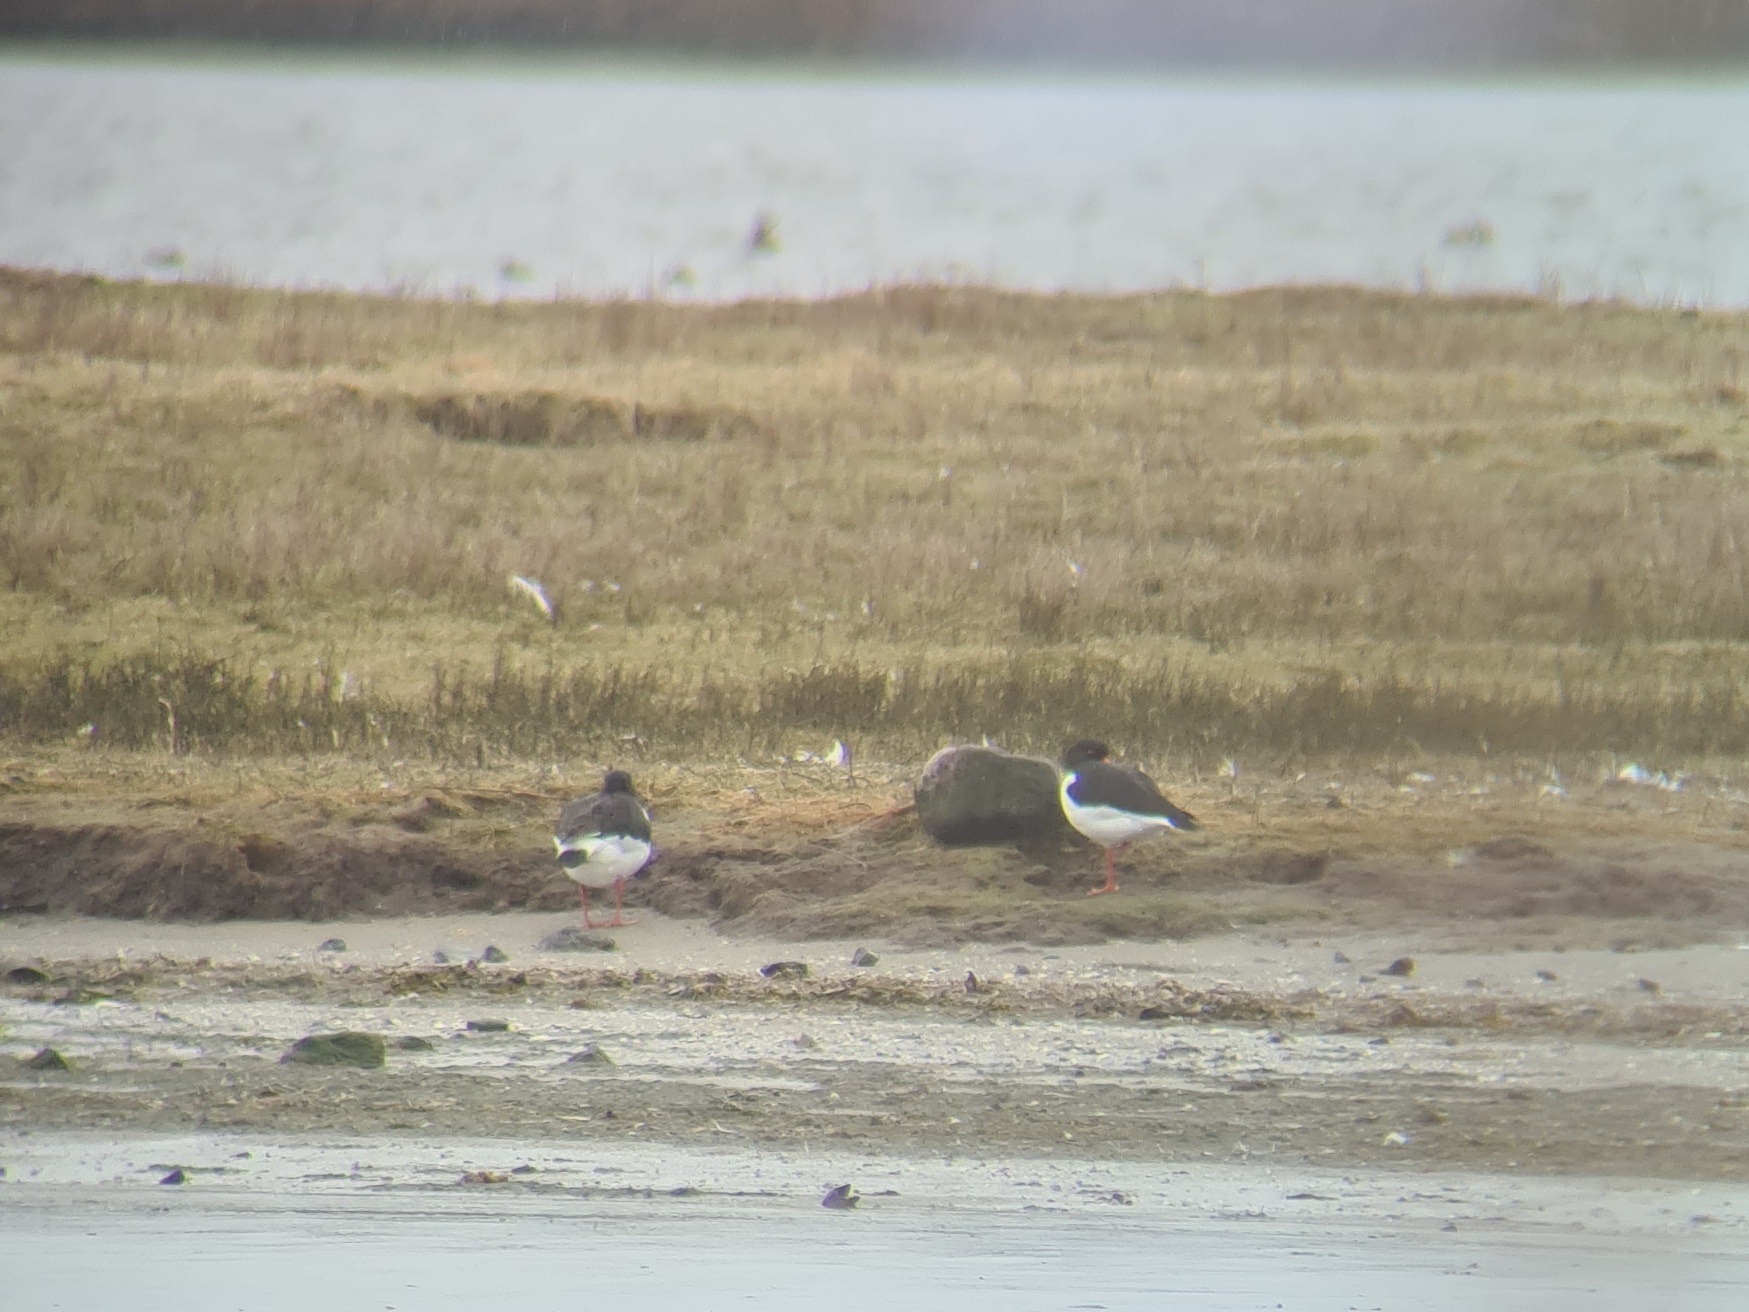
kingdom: Animalia
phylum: Chordata
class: Aves
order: Charadriiformes
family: Haematopodidae
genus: Haematopus
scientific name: Haematopus ostralegus
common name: Strandskade
